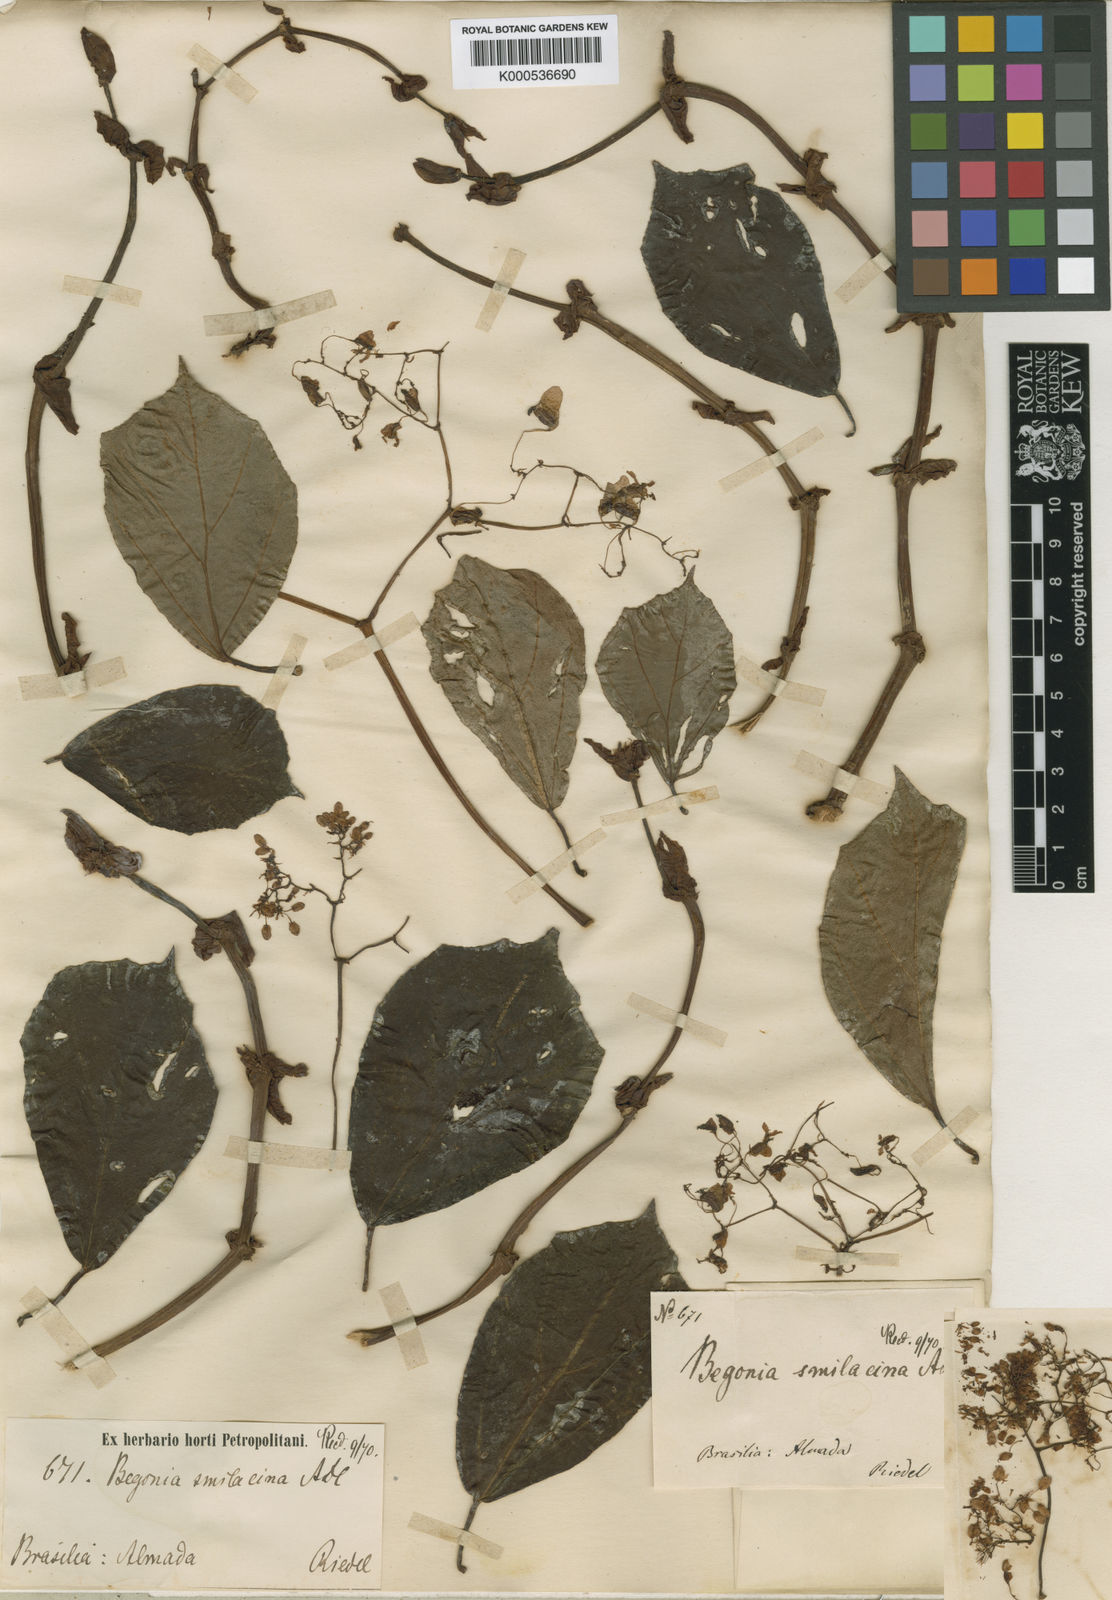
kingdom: Plantae
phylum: Tracheophyta
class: Magnoliopsida
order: Cucurbitales
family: Begoniaceae
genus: Begonia
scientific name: Begonia smilacina
